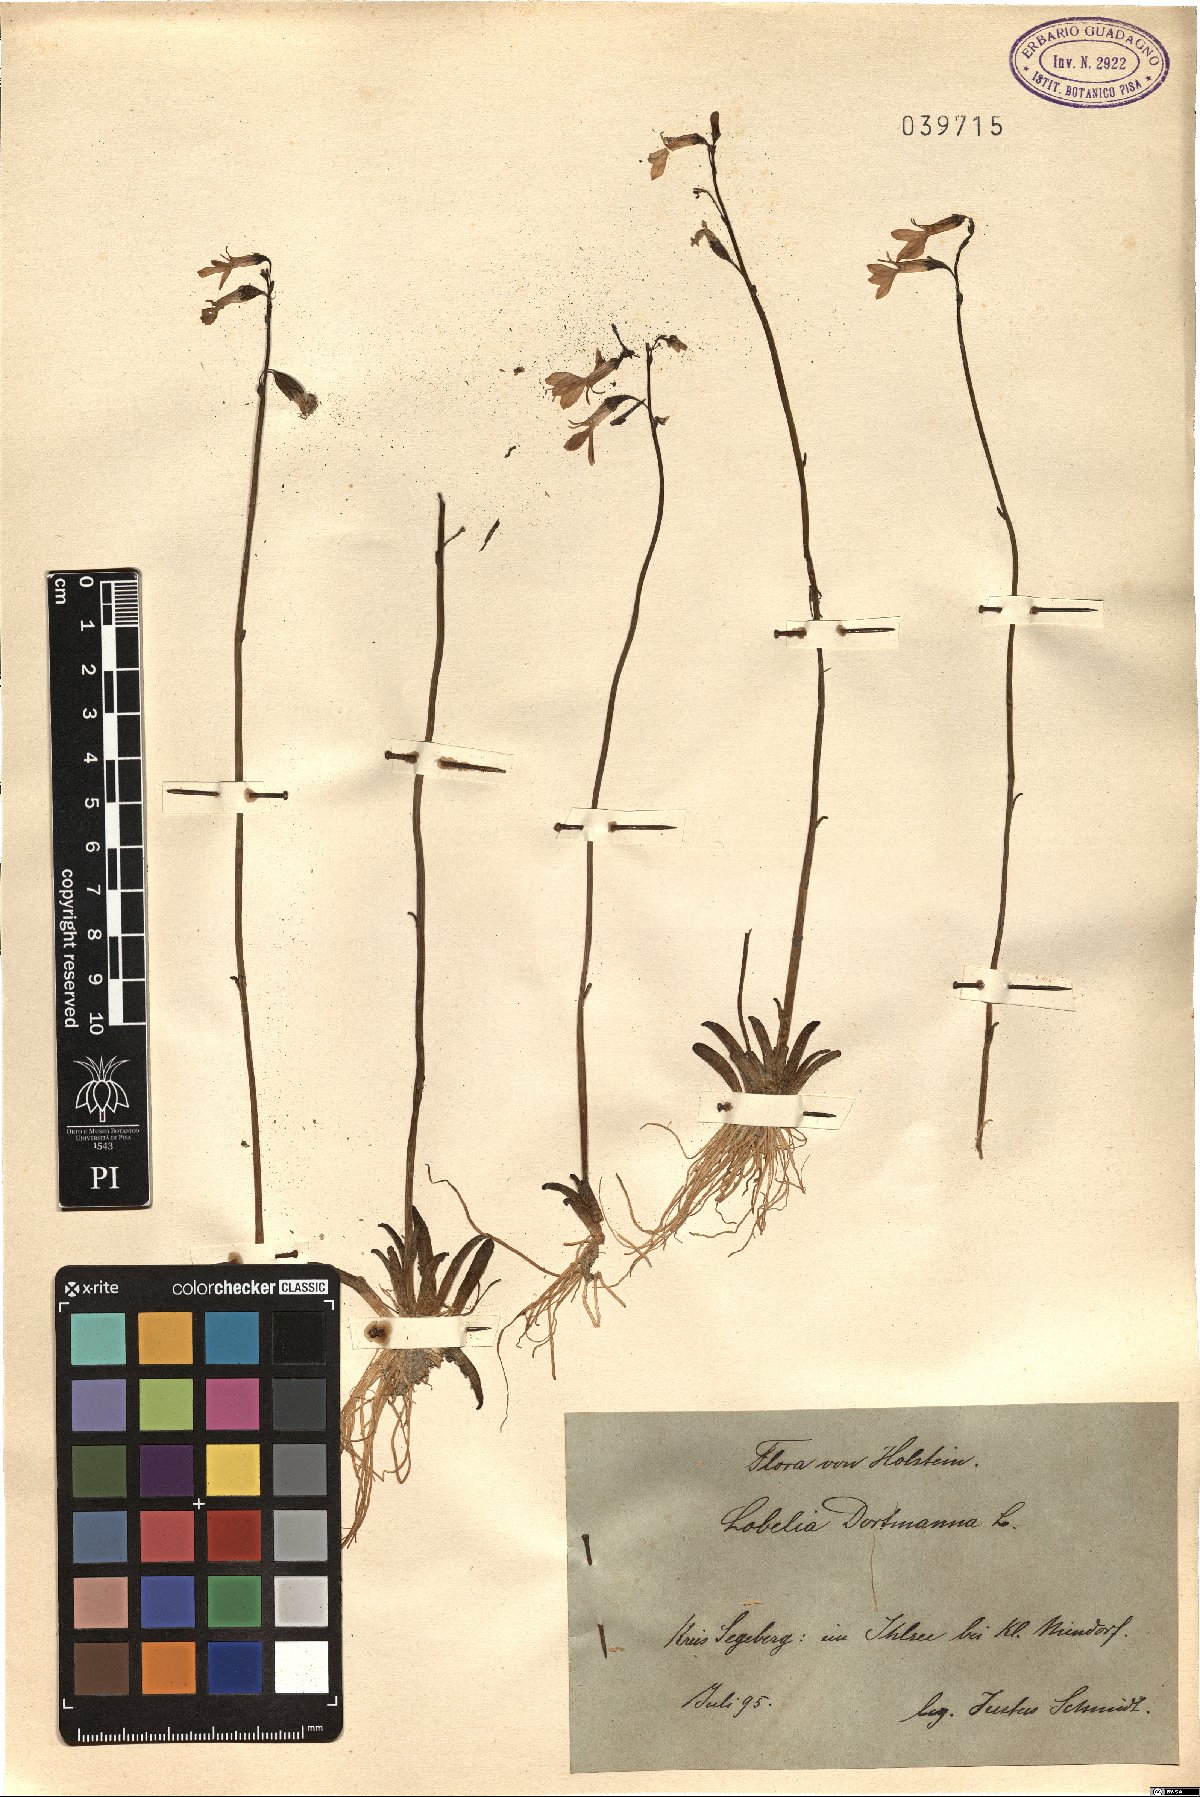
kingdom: Plantae
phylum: Tracheophyta
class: Magnoliopsida
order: Asterales
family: Campanulaceae
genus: Lobelia
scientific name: Lobelia dortmanna
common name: Water lobelia
